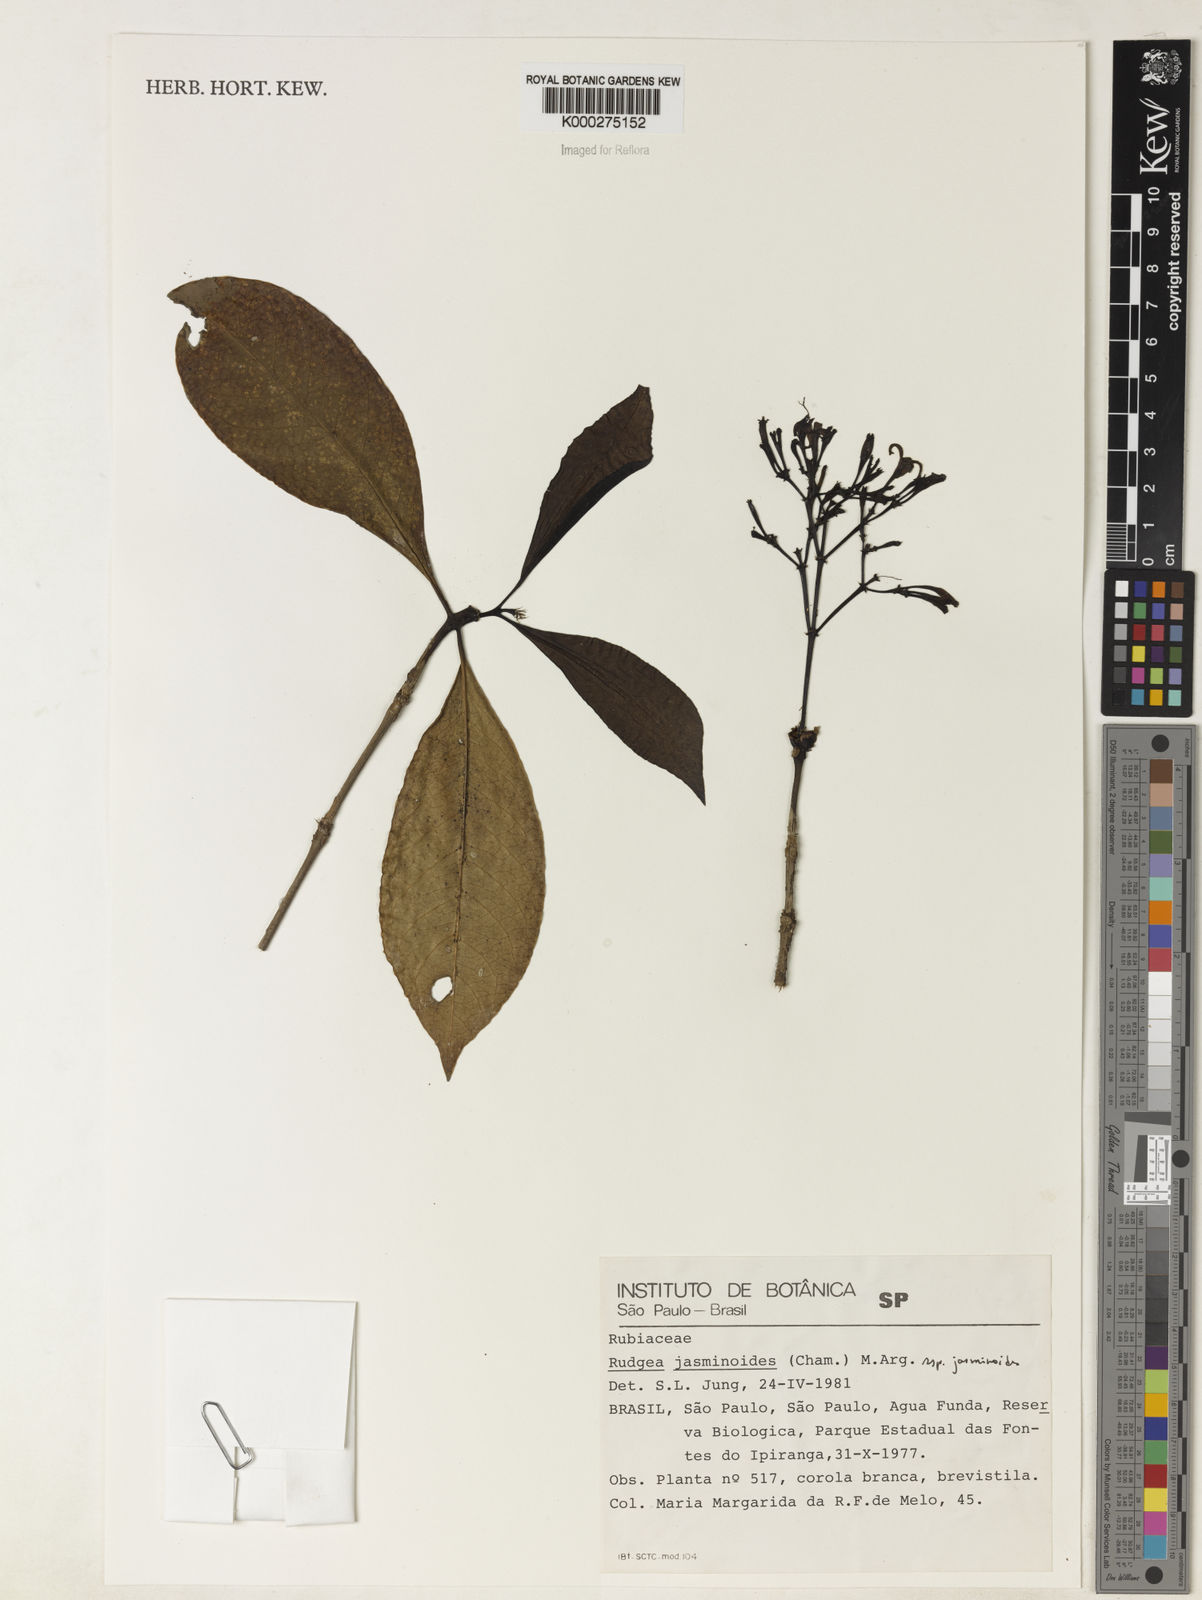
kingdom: Plantae
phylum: Tracheophyta
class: Magnoliopsida
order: Gentianales
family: Rubiaceae
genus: Rudgea
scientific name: Rudgea jasminoides
